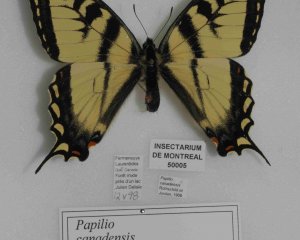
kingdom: Animalia
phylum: Arthropoda
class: Insecta
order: Lepidoptera
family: Papilionidae
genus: Pterourus
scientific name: Pterourus canadensis
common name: Canadian Tiger Swallowtail
